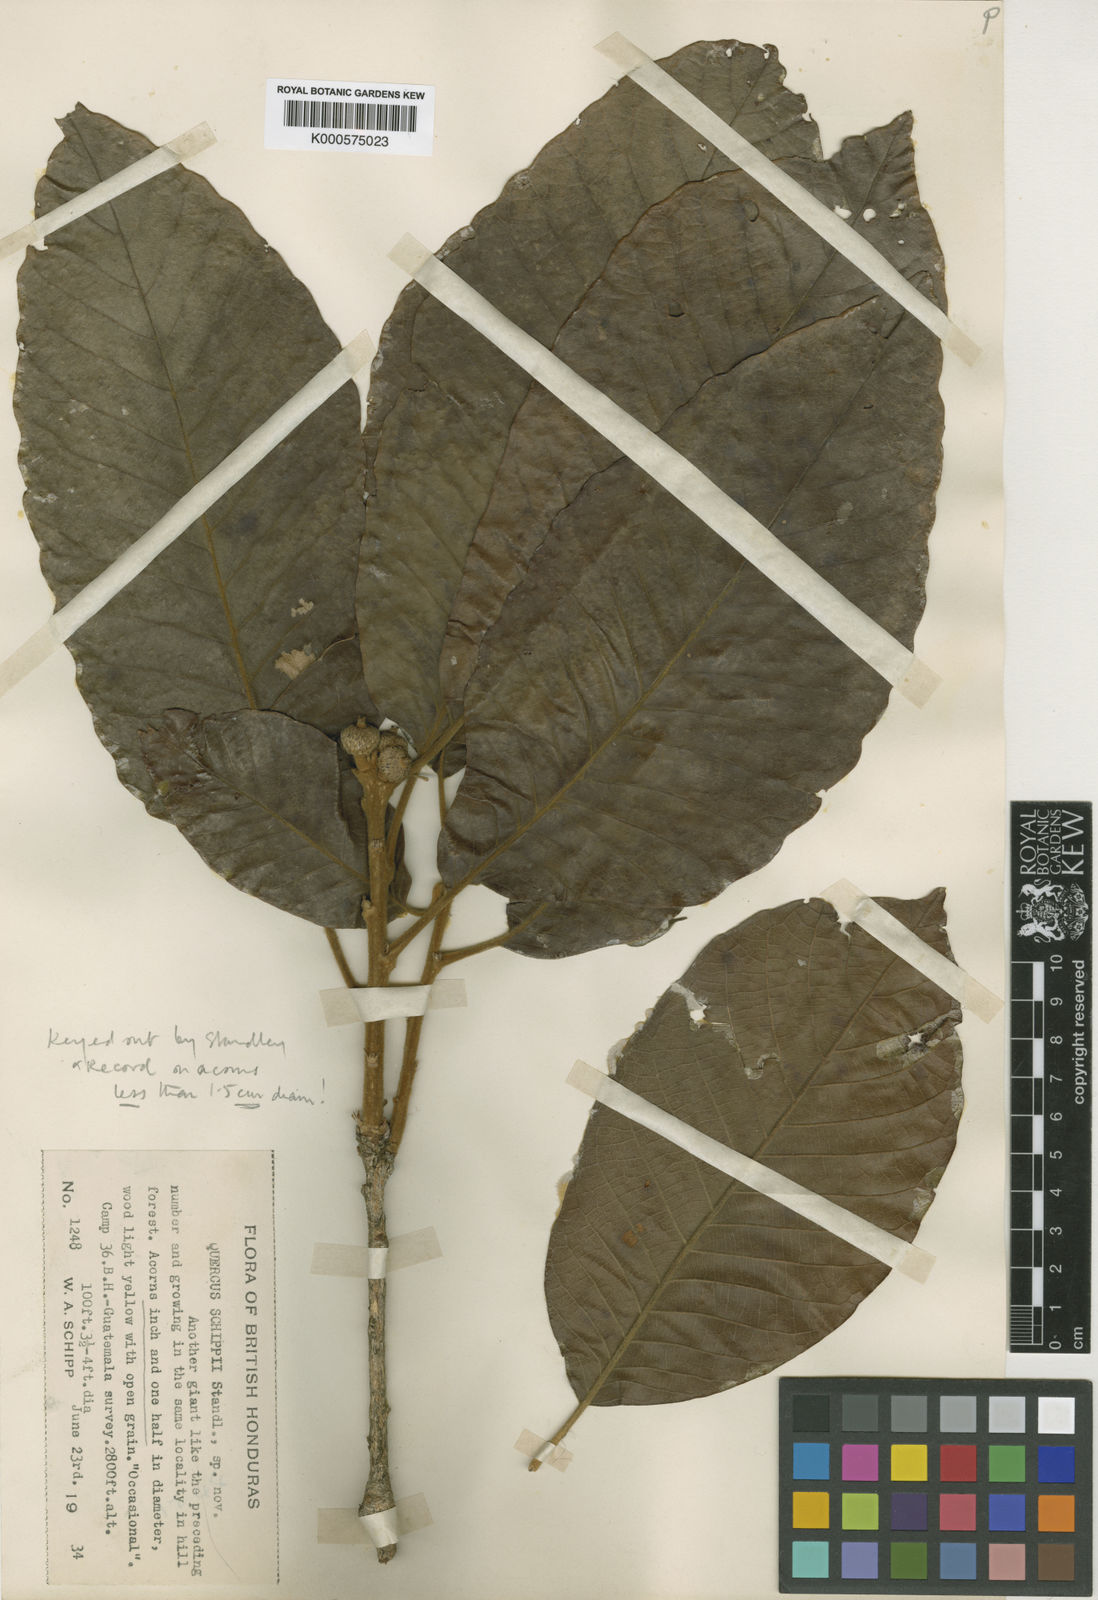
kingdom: Plantae
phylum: Tracheophyta
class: Magnoliopsida
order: Fagales
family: Fagaceae
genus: Quercus
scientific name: Quercus insignis
